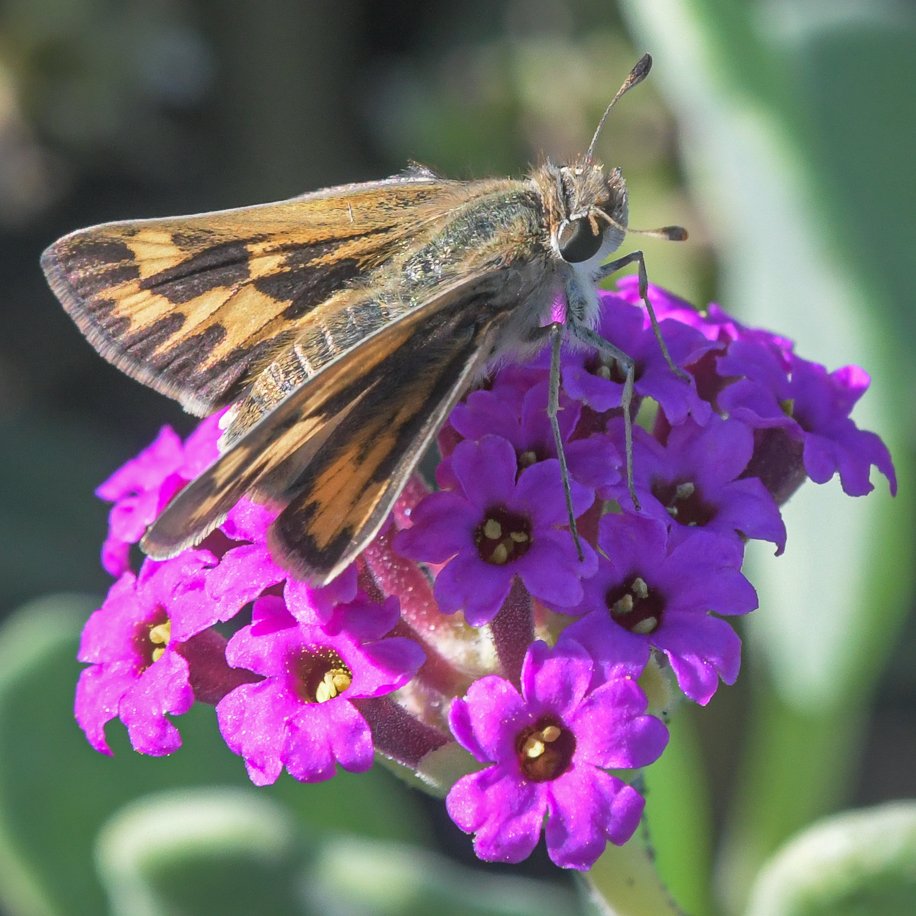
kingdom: Animalia
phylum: Arthropoda
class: Insecta
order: Lepidoptera
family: Hesperiidae
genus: Hylephila
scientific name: Hylephila phyleus
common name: Fiery Skipper
